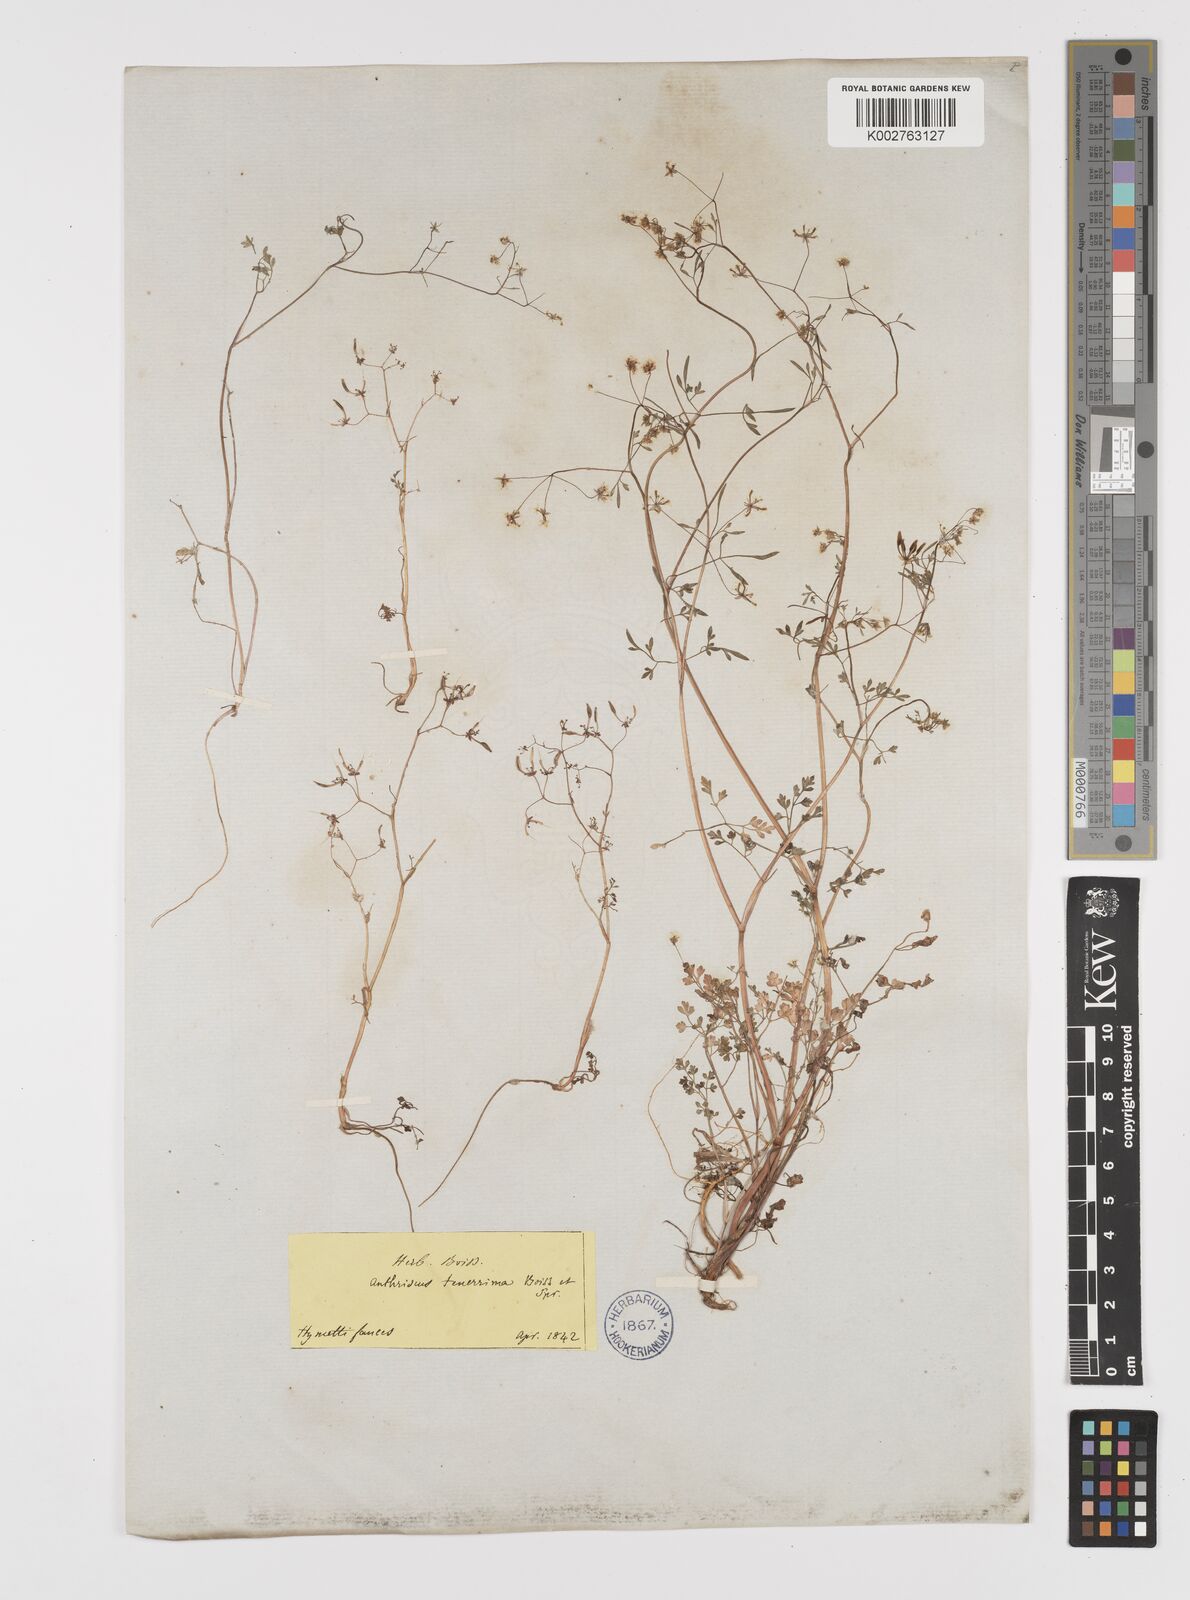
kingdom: Plantae
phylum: Tracheophyta
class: Magnoliopsida
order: Apiales
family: Apiaceae
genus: Anthriscus
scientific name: Anthriscus tenerrima
